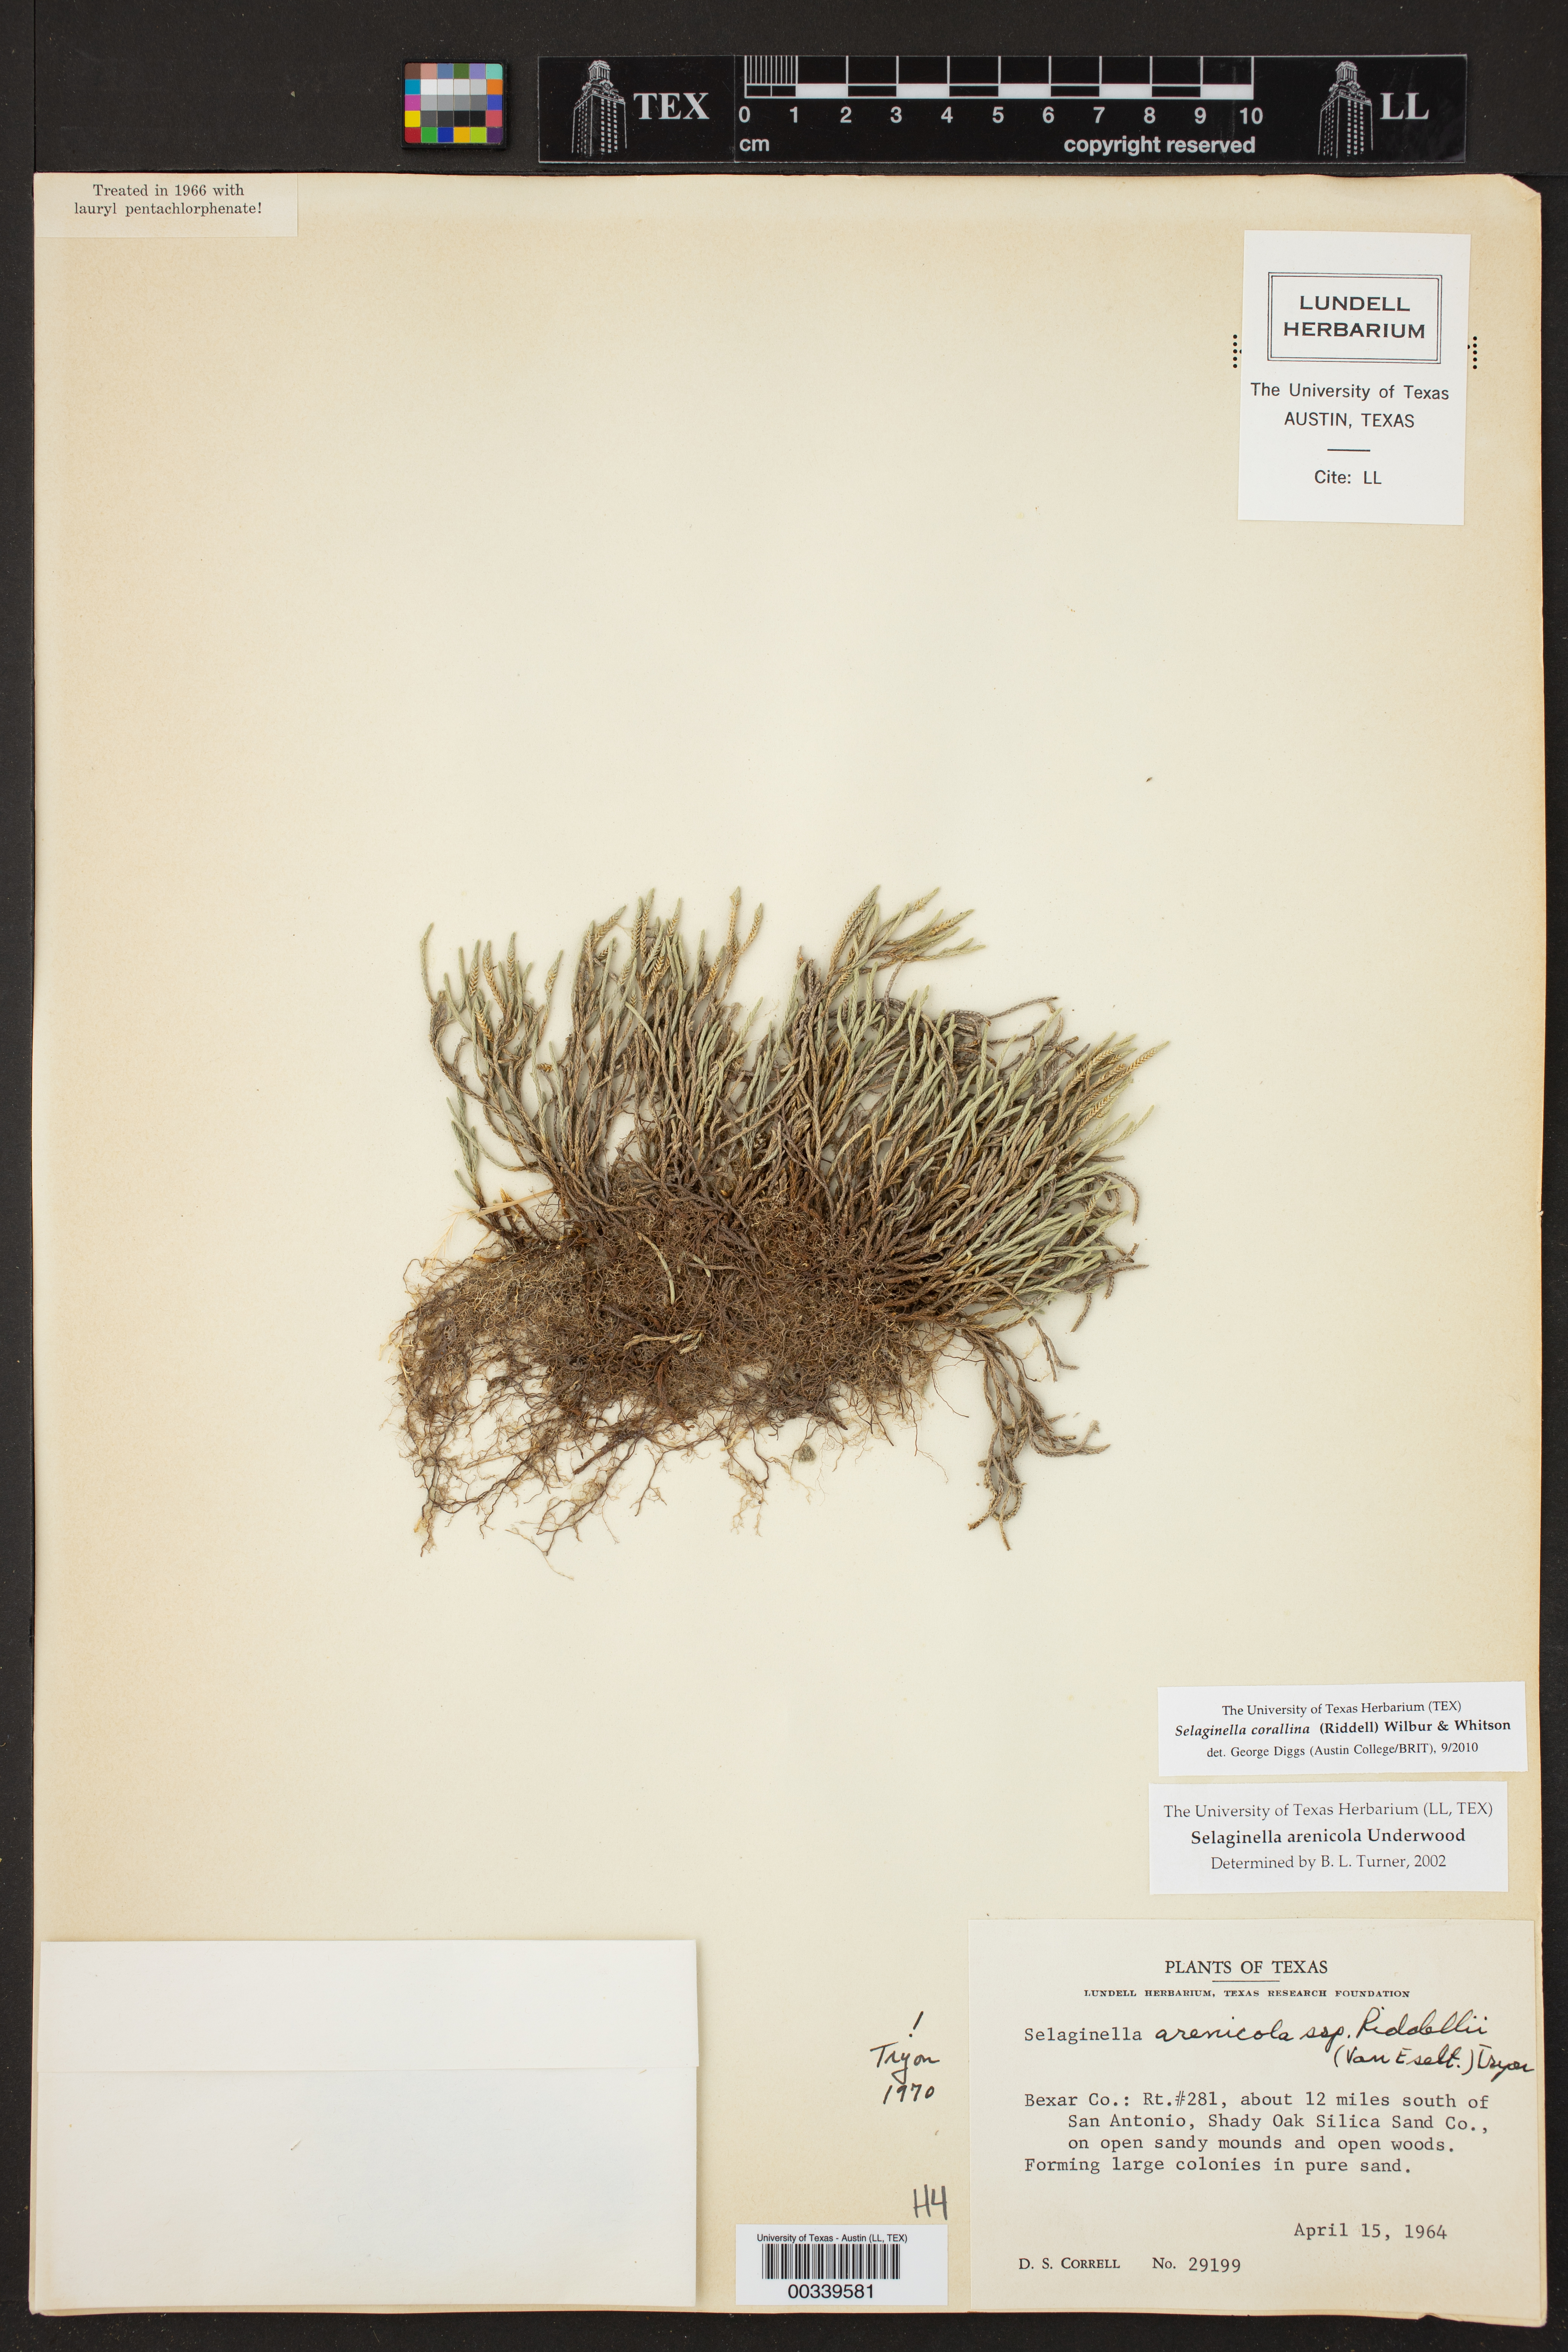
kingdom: Plantae
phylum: Tracheophyta
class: Lycopodiopsida
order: Selaginellales
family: Selaginellaceae
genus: Selaginella
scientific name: Selaginella corallina
